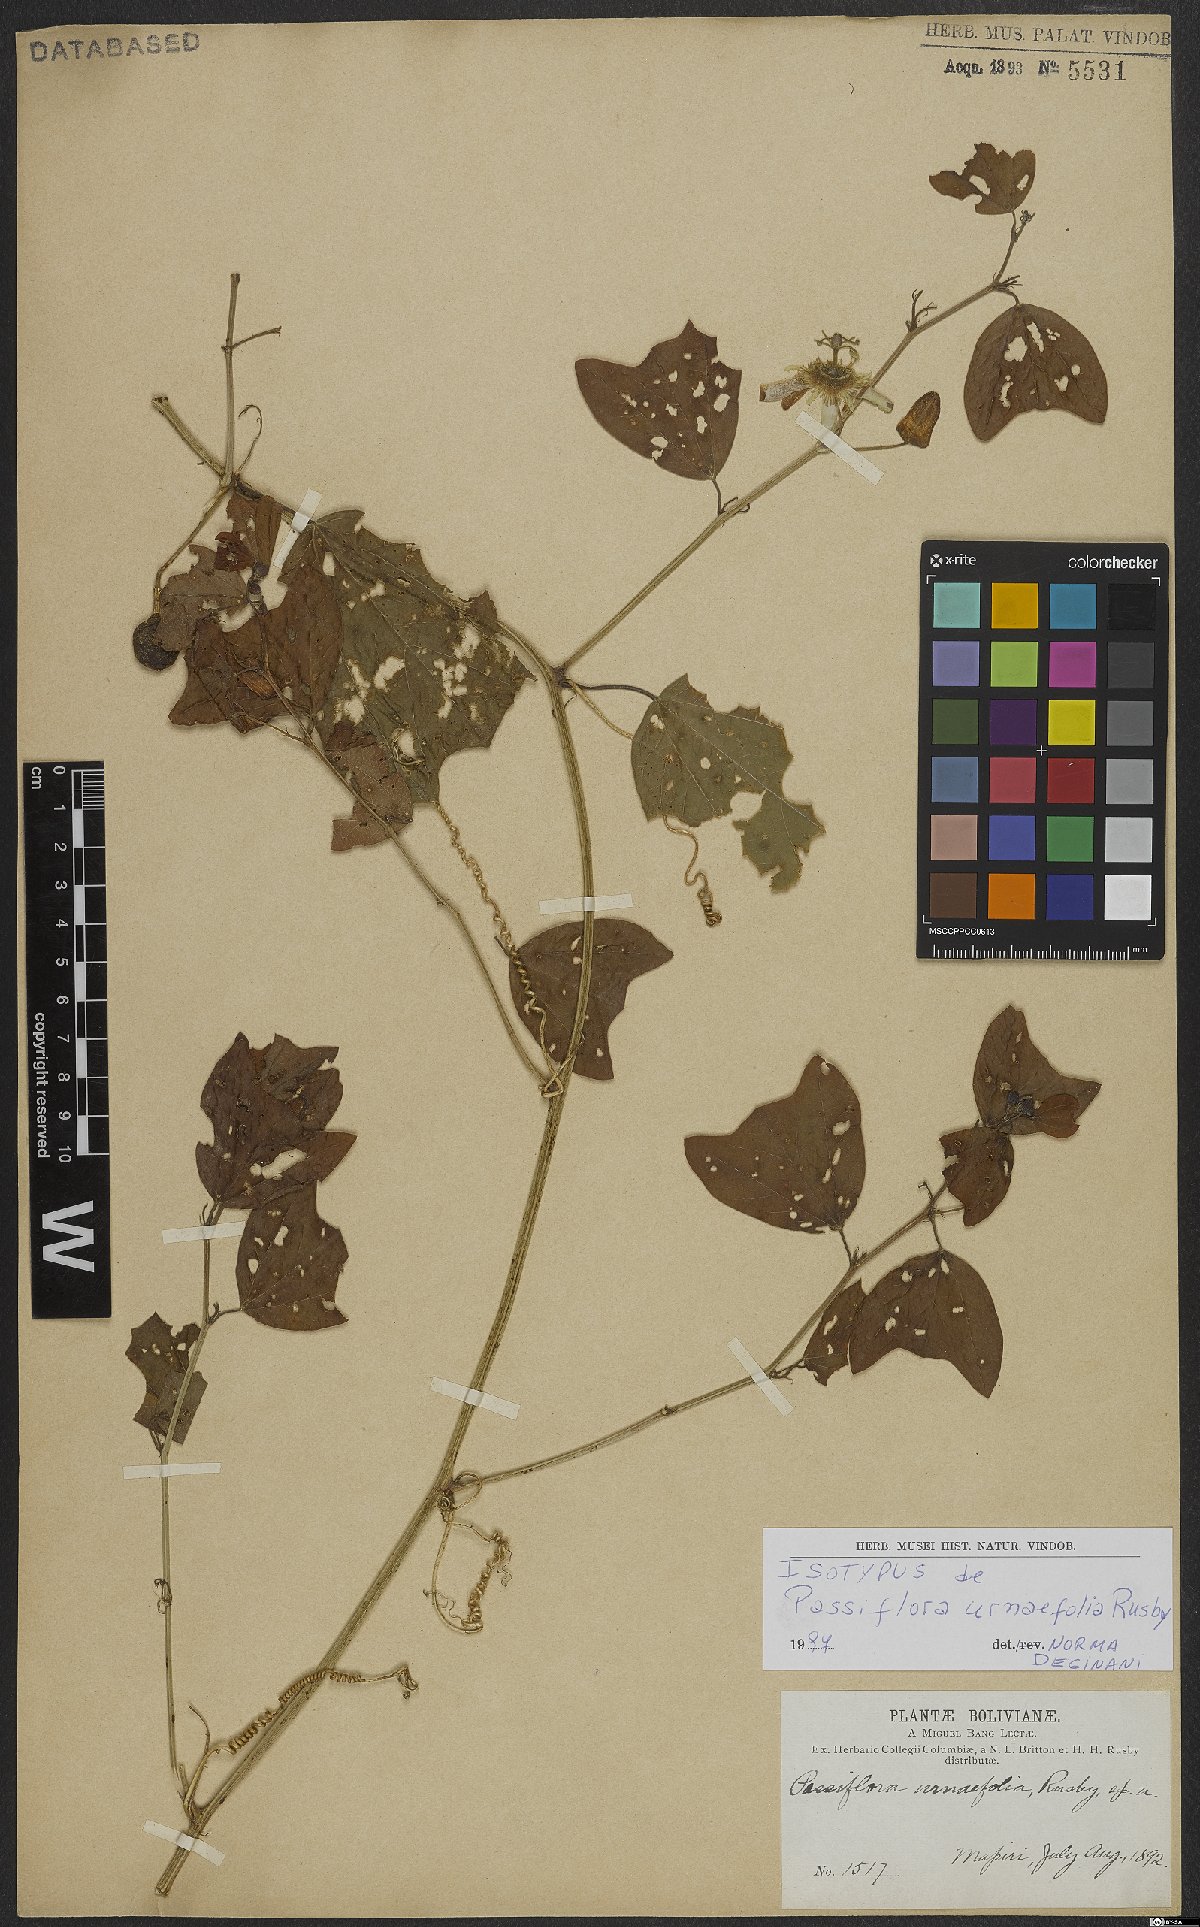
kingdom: Plantae
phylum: Tracheophyta
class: Magnoliopsida
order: Malpighiales
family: Passifloraceae
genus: Passiflora
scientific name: Passiflora urnifolia
